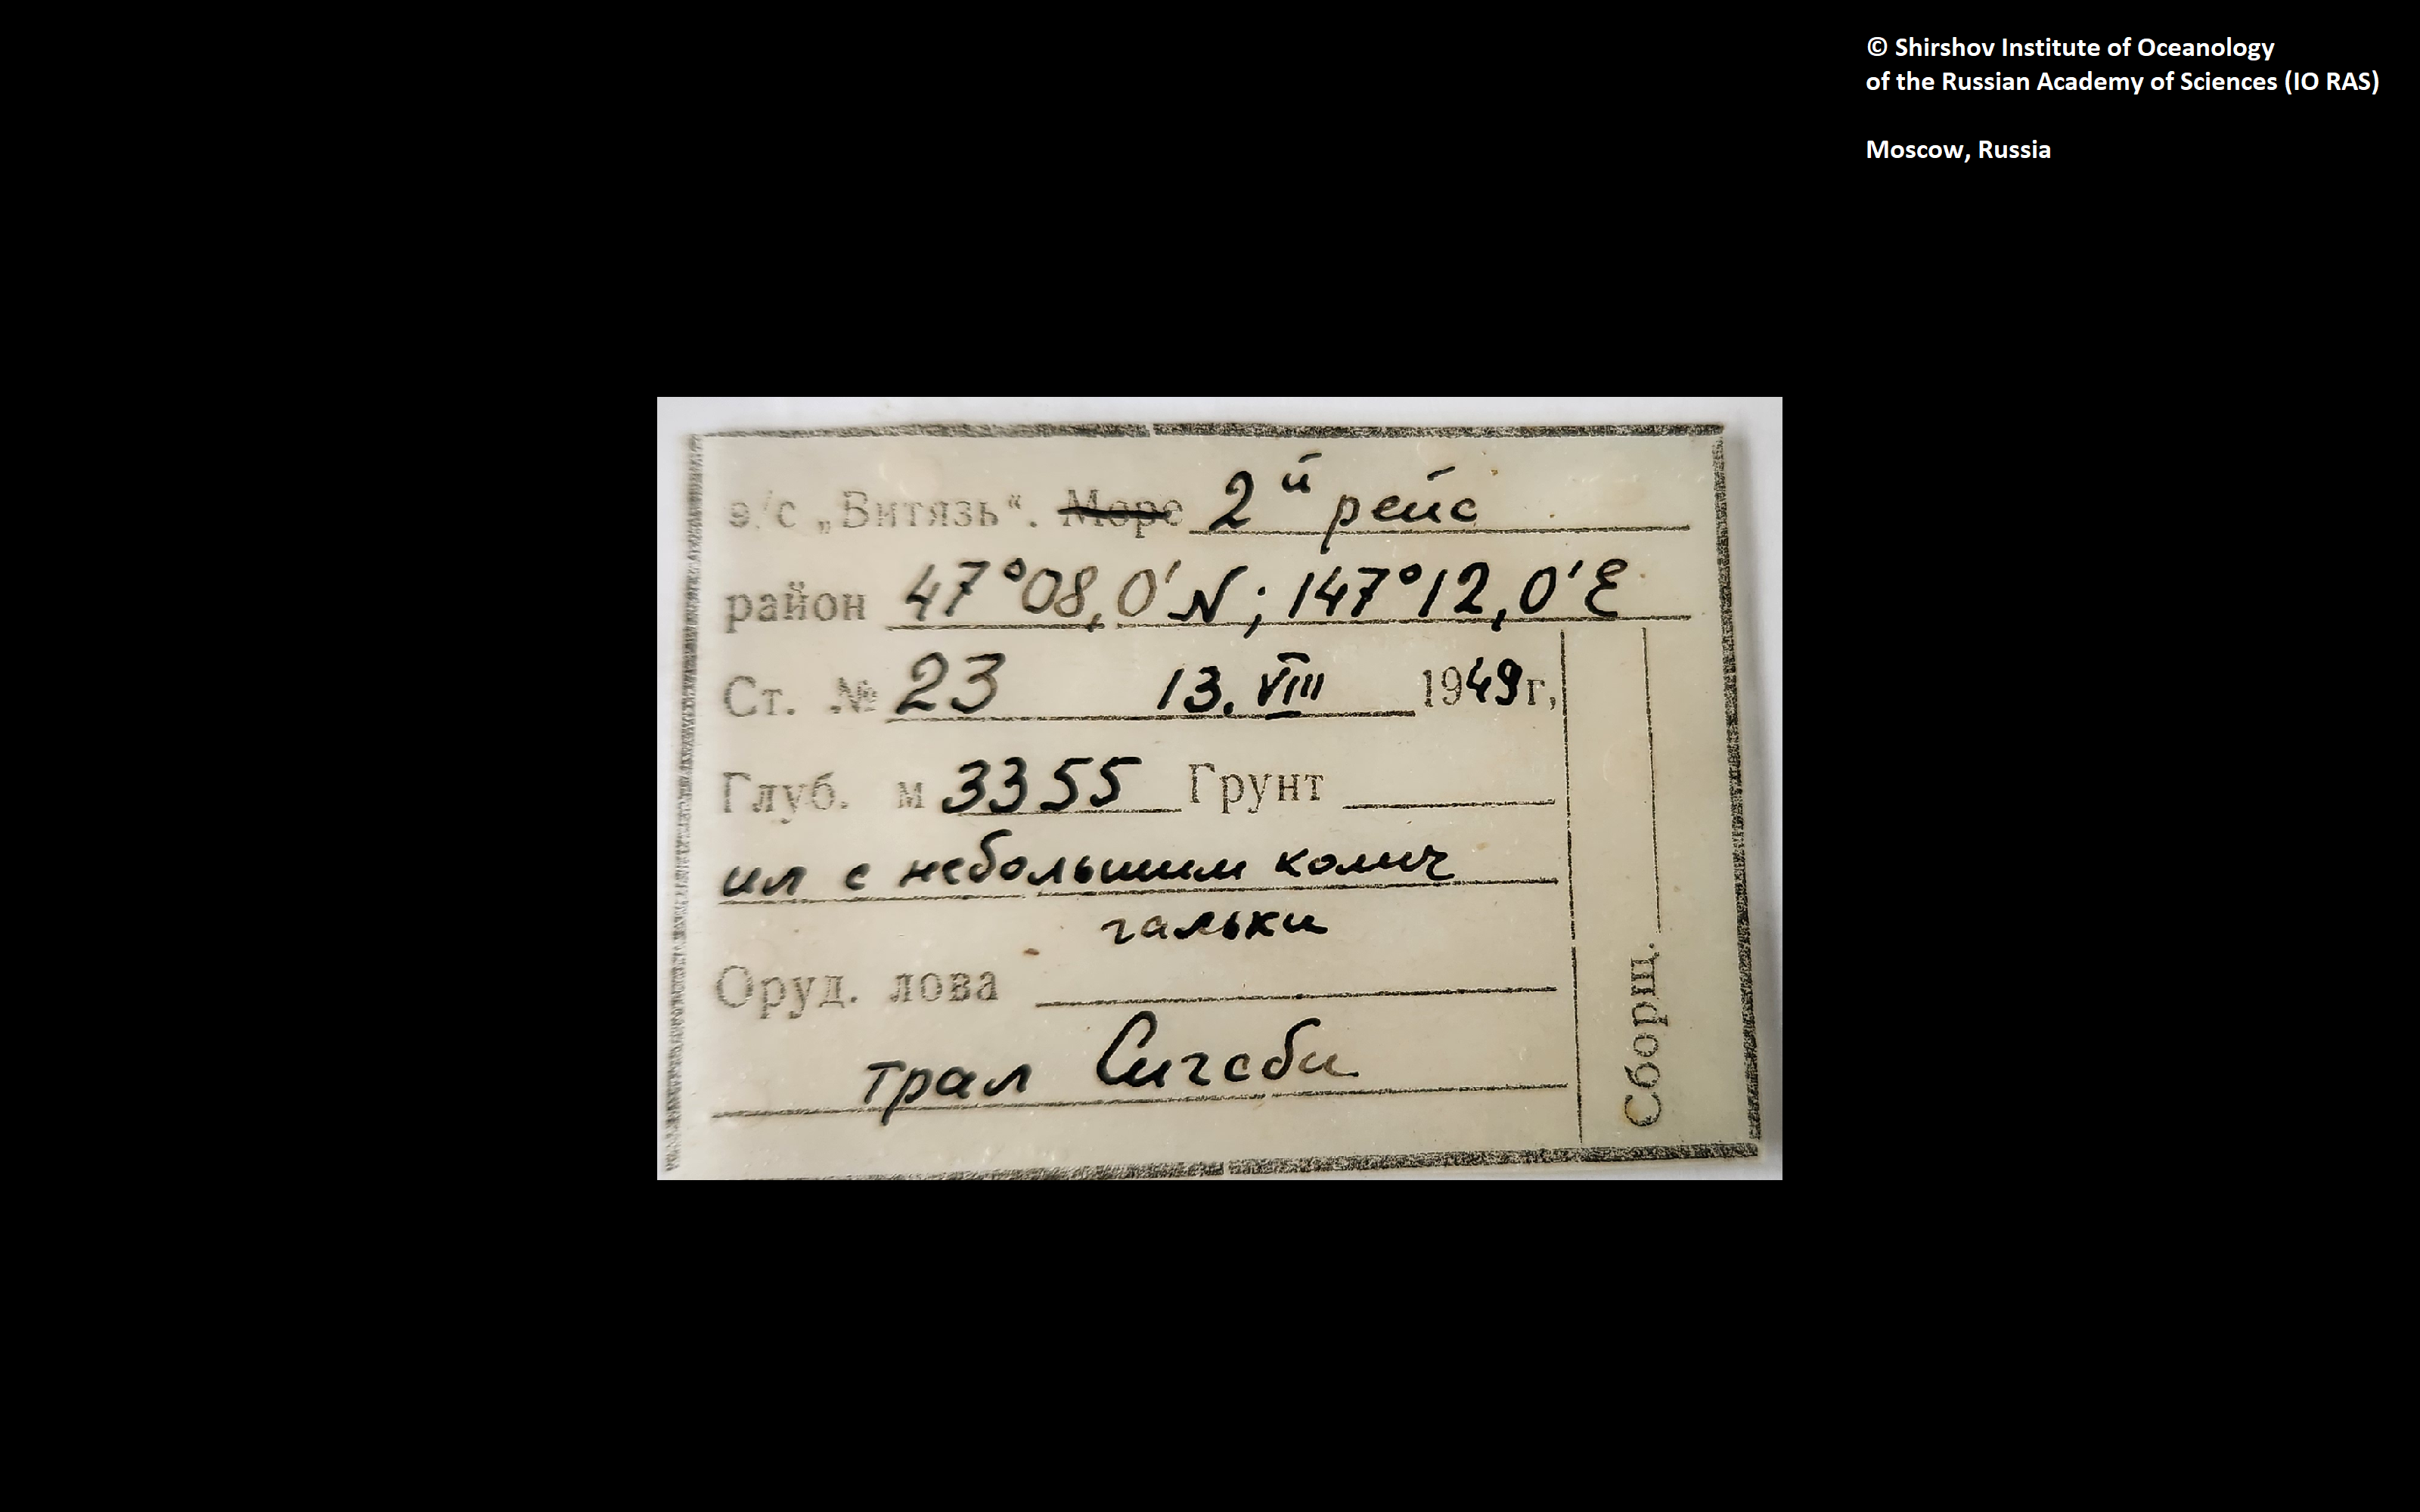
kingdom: Animalia
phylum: Annelida
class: Polychaeta
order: Echiuroidea
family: Bonelliidae
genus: Alomasoma
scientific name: Alomasoma nordpacificum
